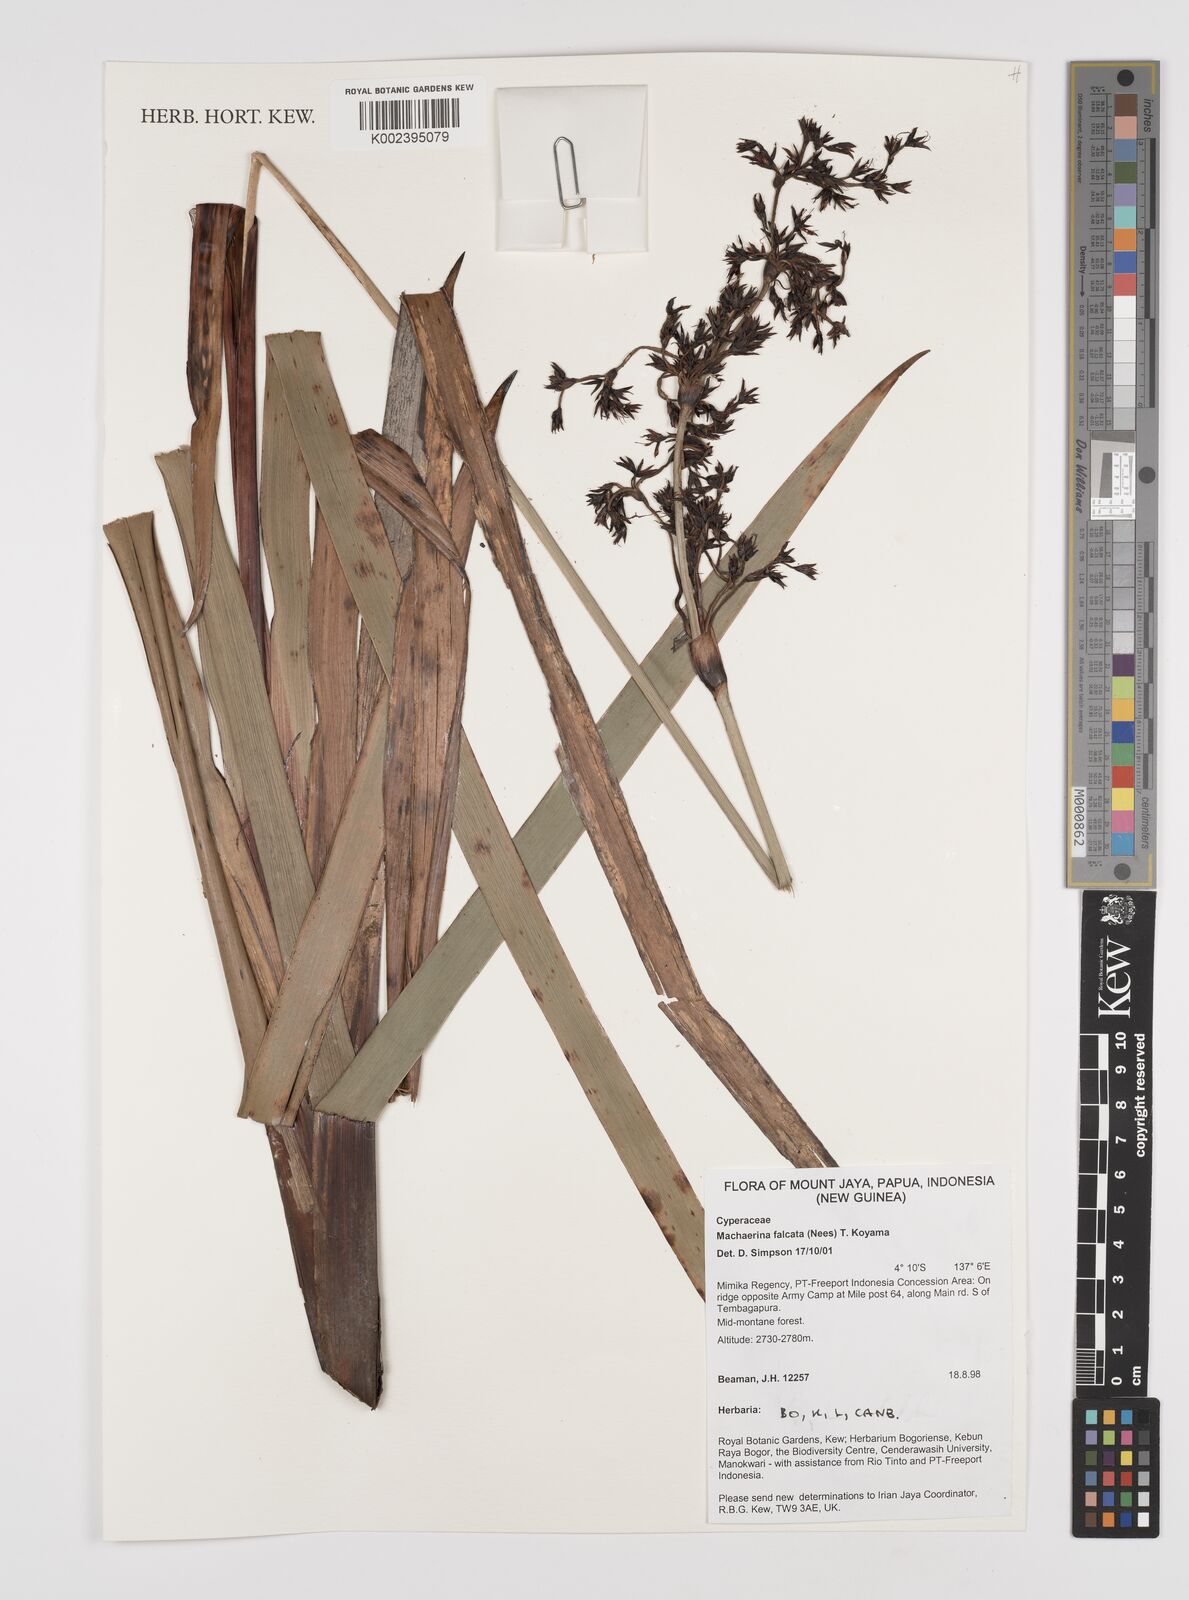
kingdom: Plantae
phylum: Tracheophyta
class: Liliopsida
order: Poales
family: Cyperaceae
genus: Machaerina
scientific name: Machaerina falcata
